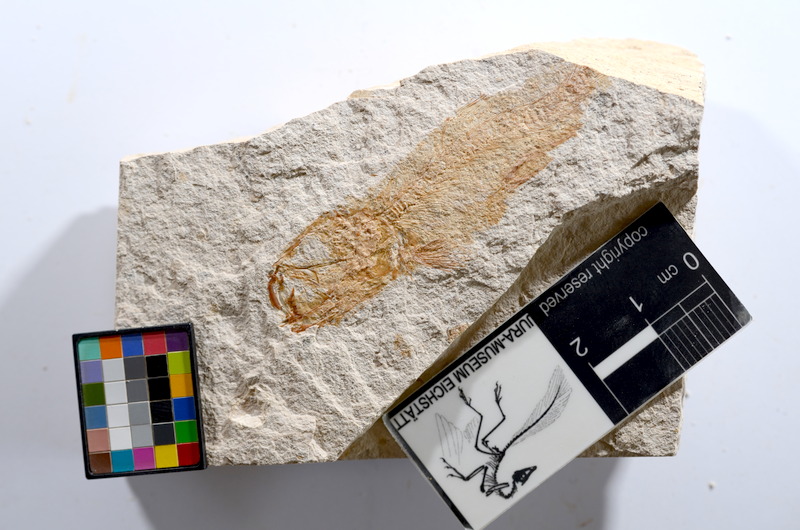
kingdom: Animalia
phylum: Chordata
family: Ascalaboidae
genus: Tharsis
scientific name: Tharsis dubius
